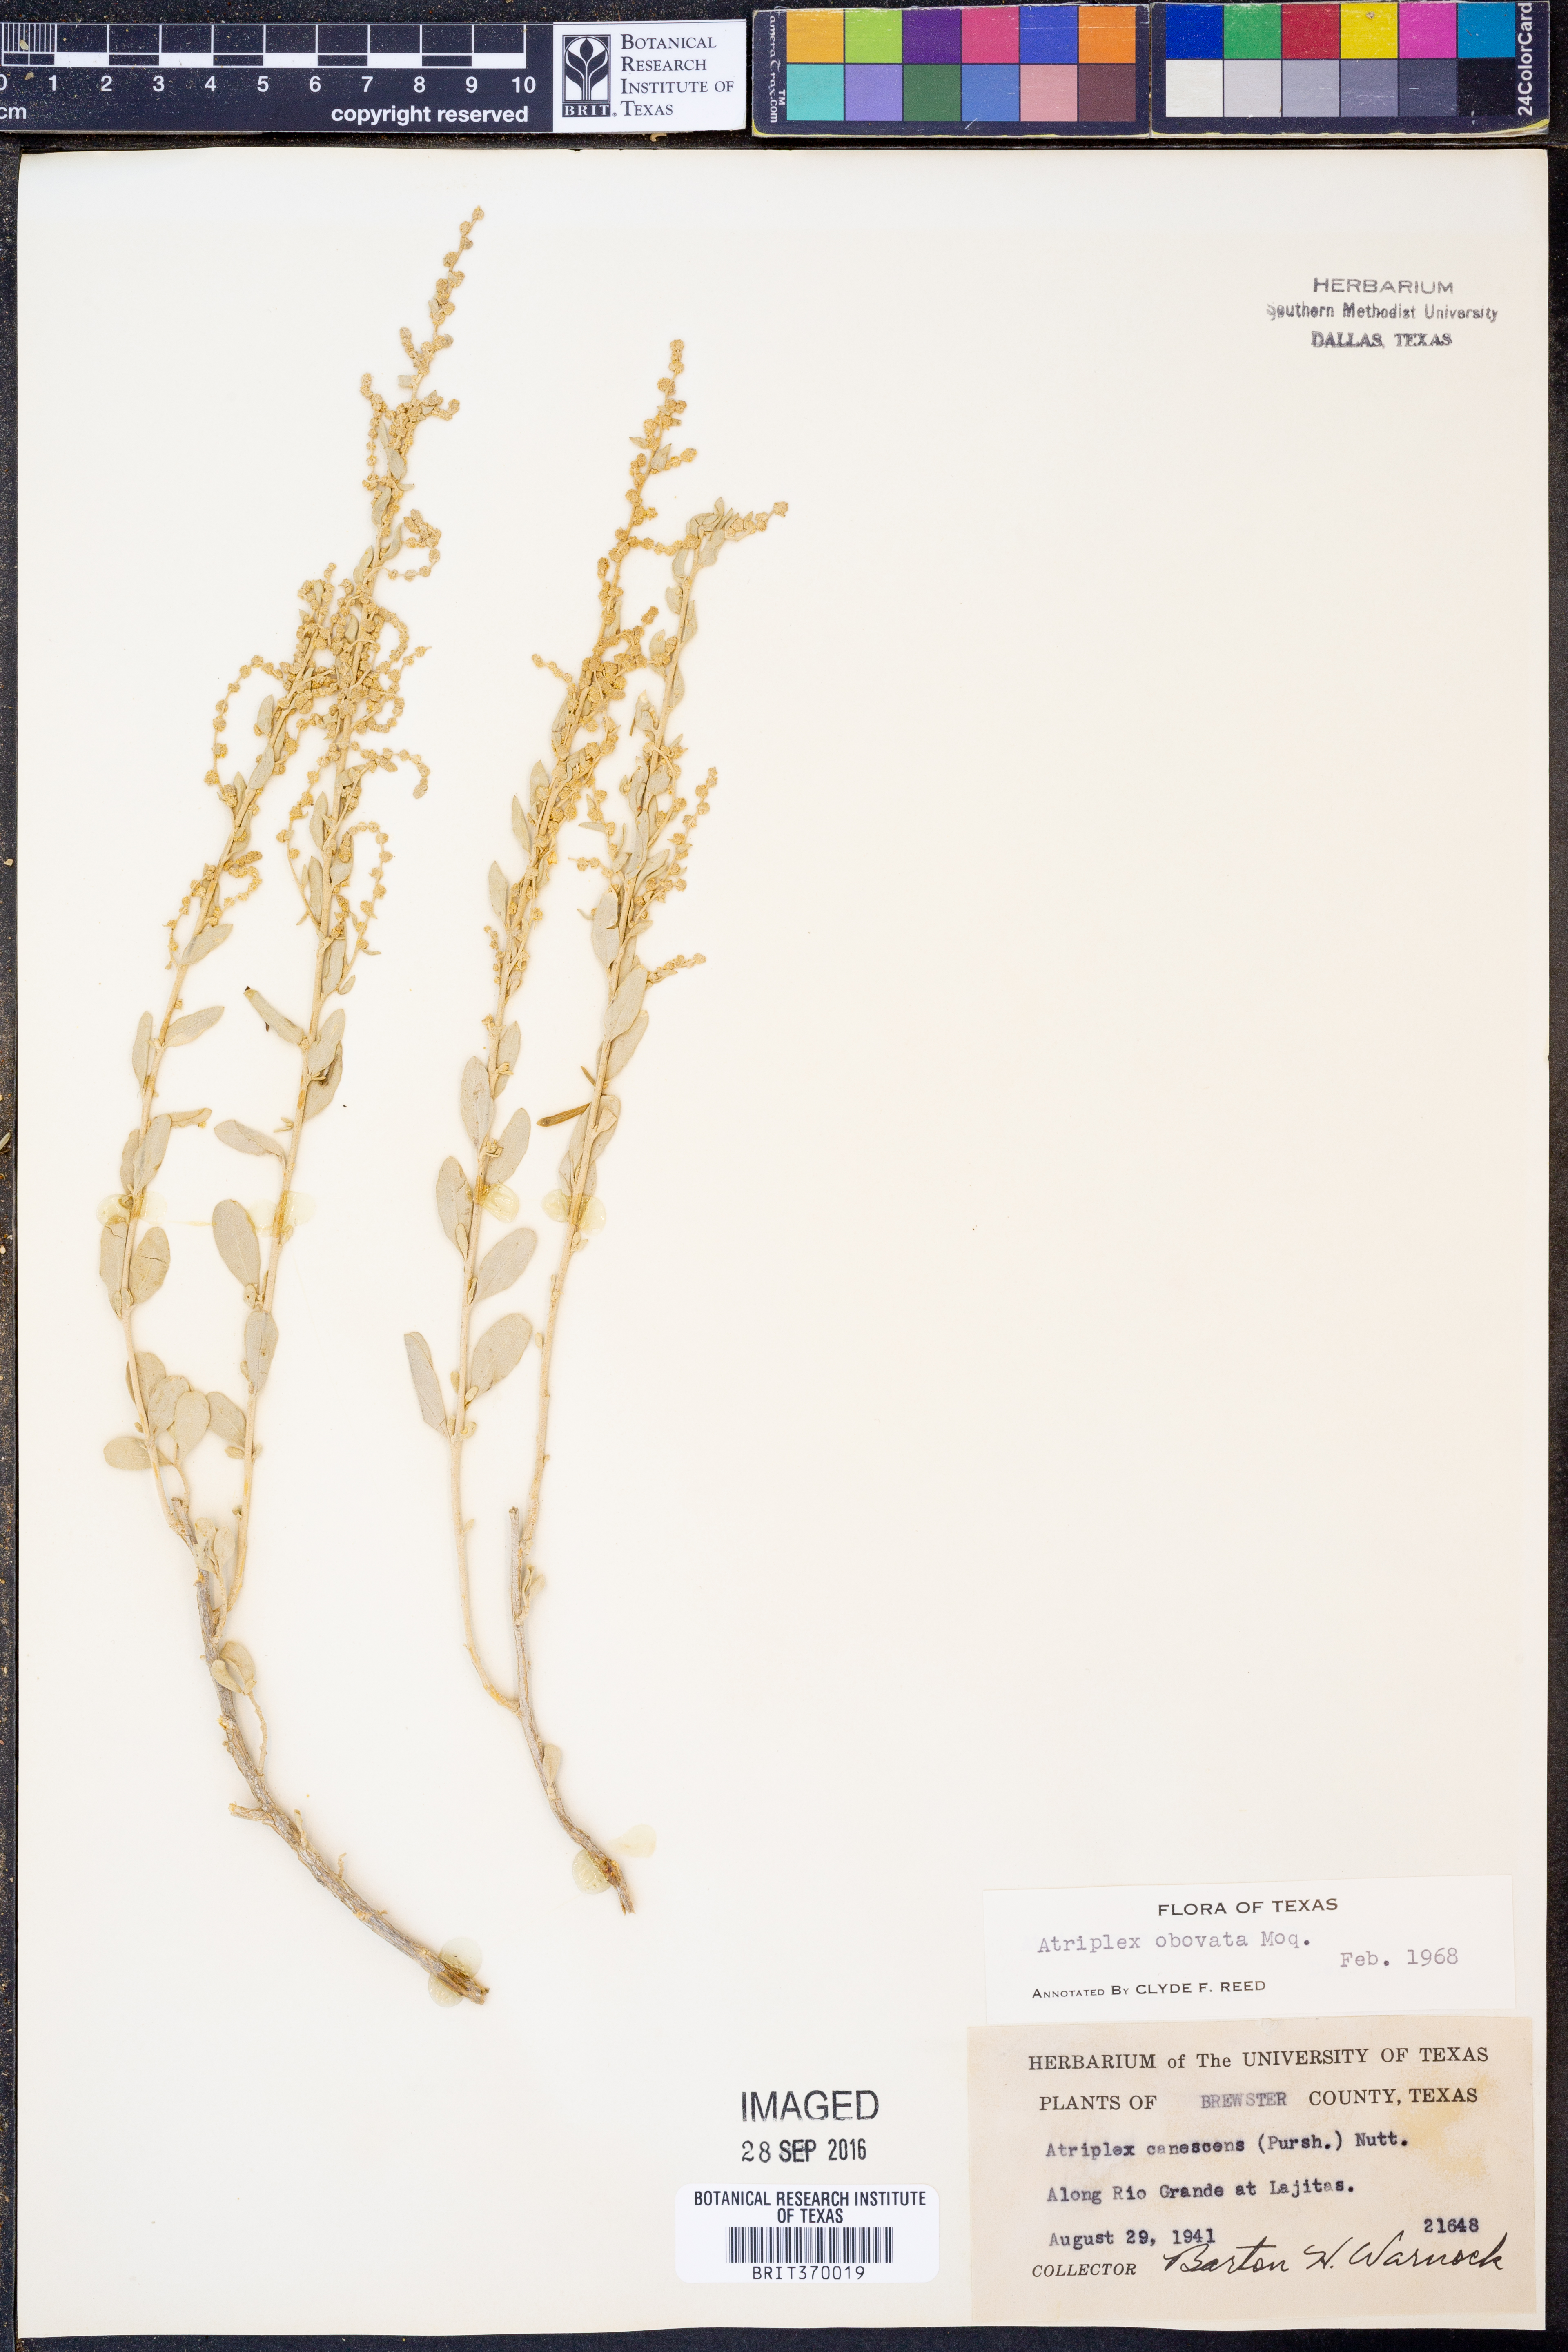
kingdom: Plantae
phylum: Tracheophyta
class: Magnoliopsida
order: Caryophyllales
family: Amaranthaceae
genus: Atriplex
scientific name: Atriplex obovata
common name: New mexico saltbush
